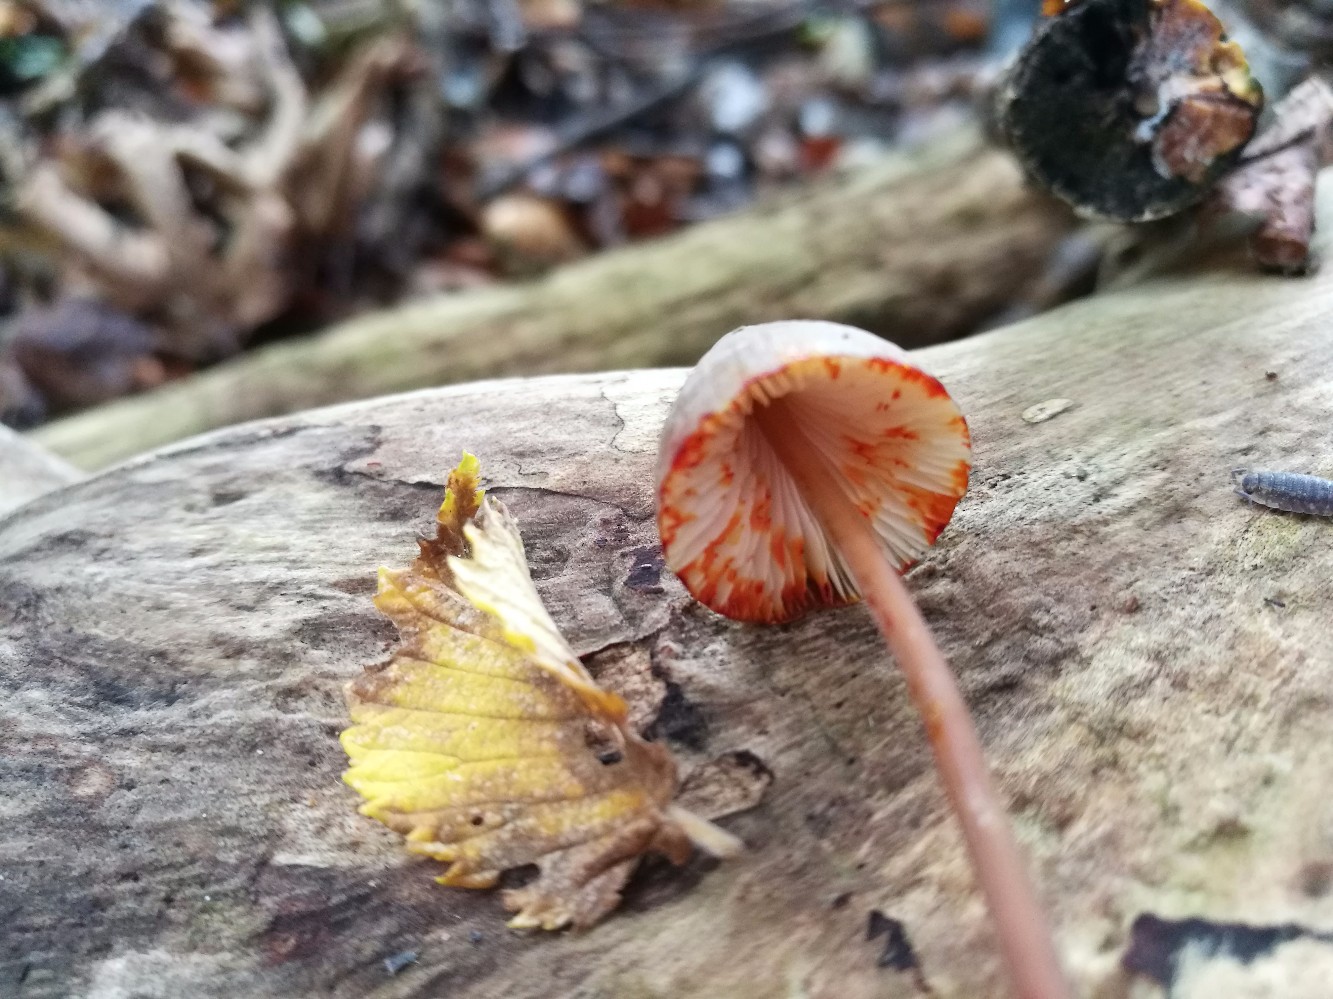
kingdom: Fungi
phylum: Basidiomycota
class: Agaricomycetes
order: Agaricales
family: Mycenaceae
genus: Mycena
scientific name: Mycena crocata
